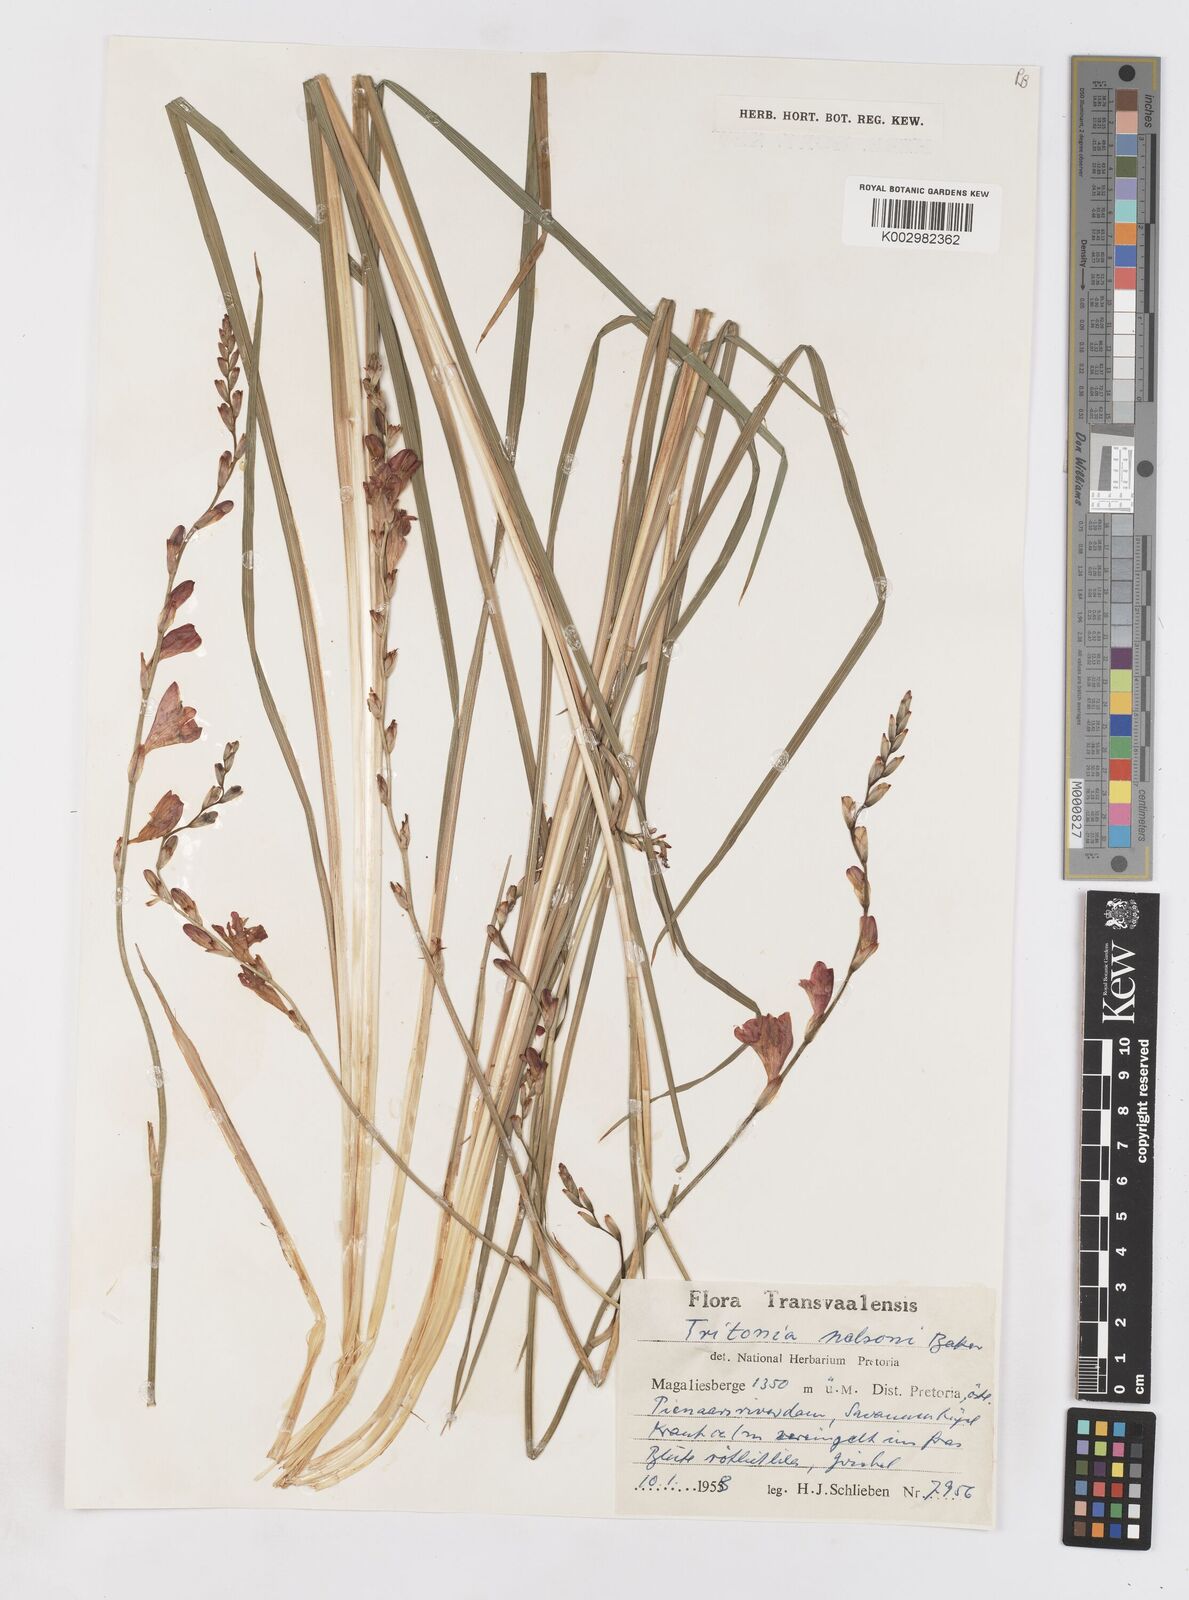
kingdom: Plantae
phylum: Tracheophyta
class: Liliopsida
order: Asparagales
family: Iridaceae
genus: Tritonia
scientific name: Tritonia nelsonii
